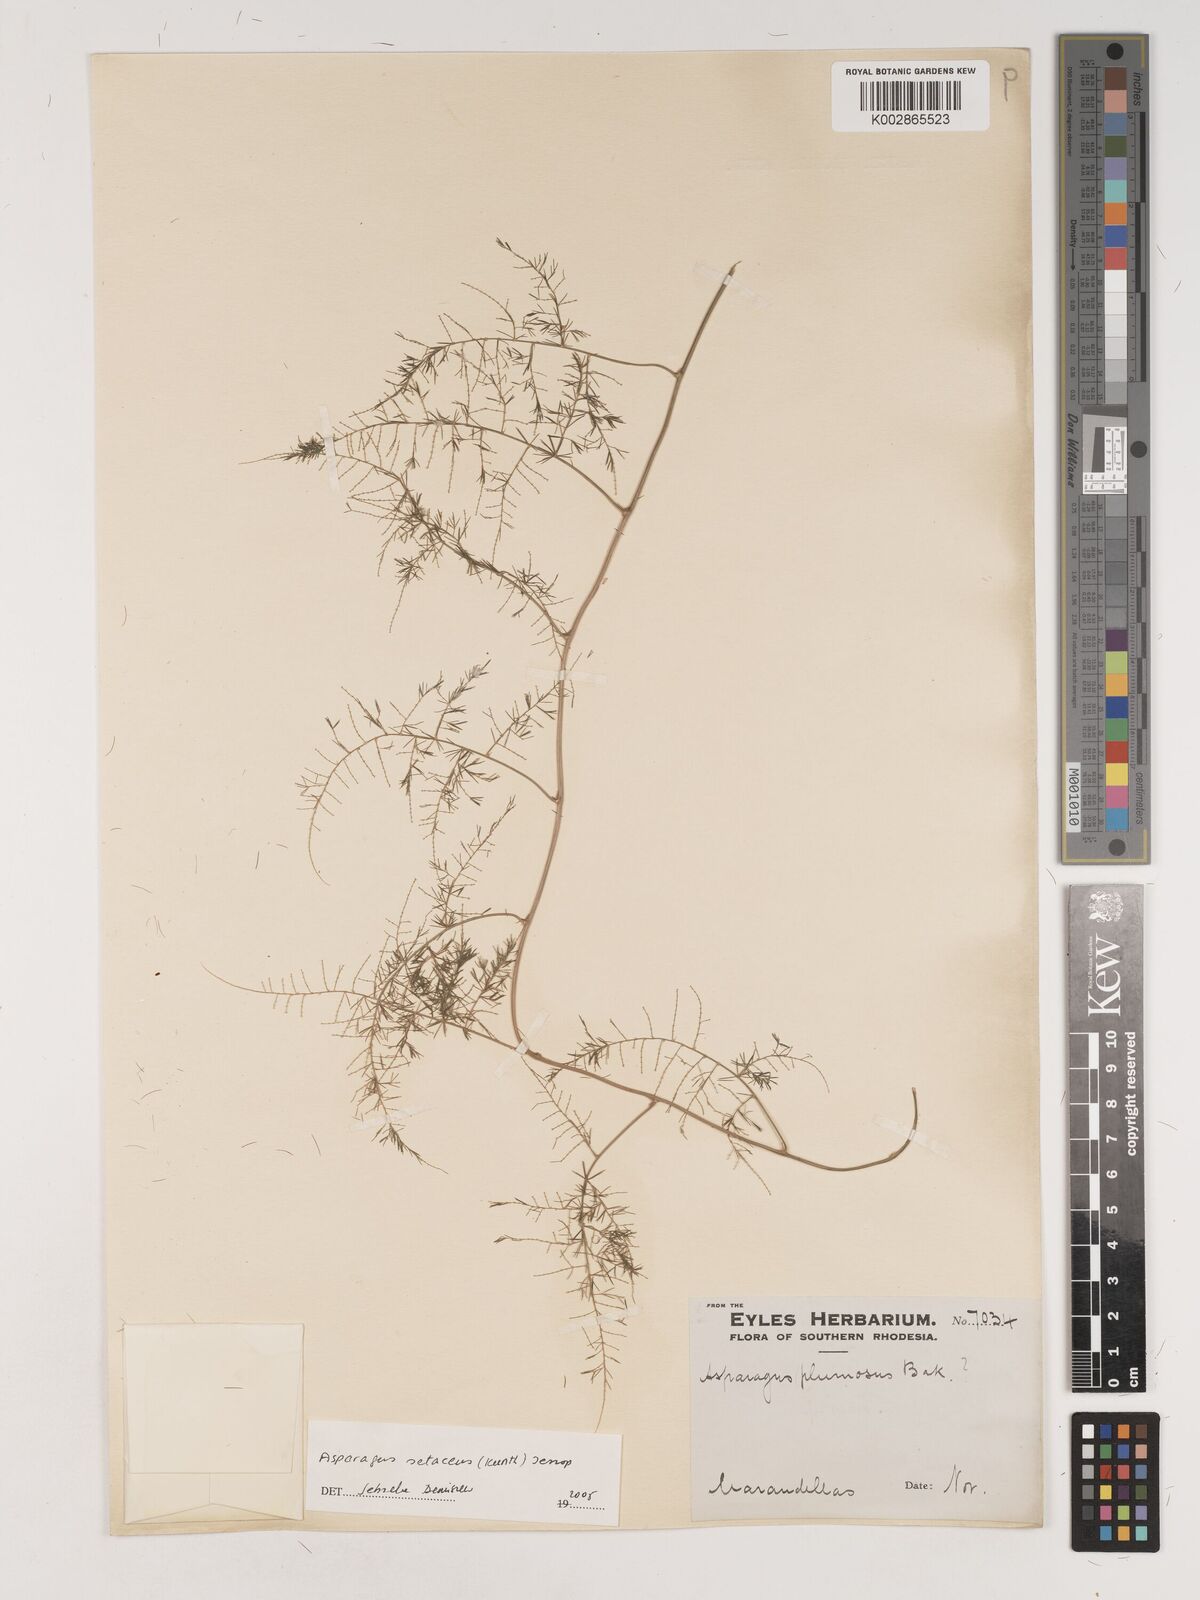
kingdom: Plantae
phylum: Tracheophyta
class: Liliopsida
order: Asparagales
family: Asparagaceae
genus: Asparagus
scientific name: Asparagus setaceus
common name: Common asparagus fern
